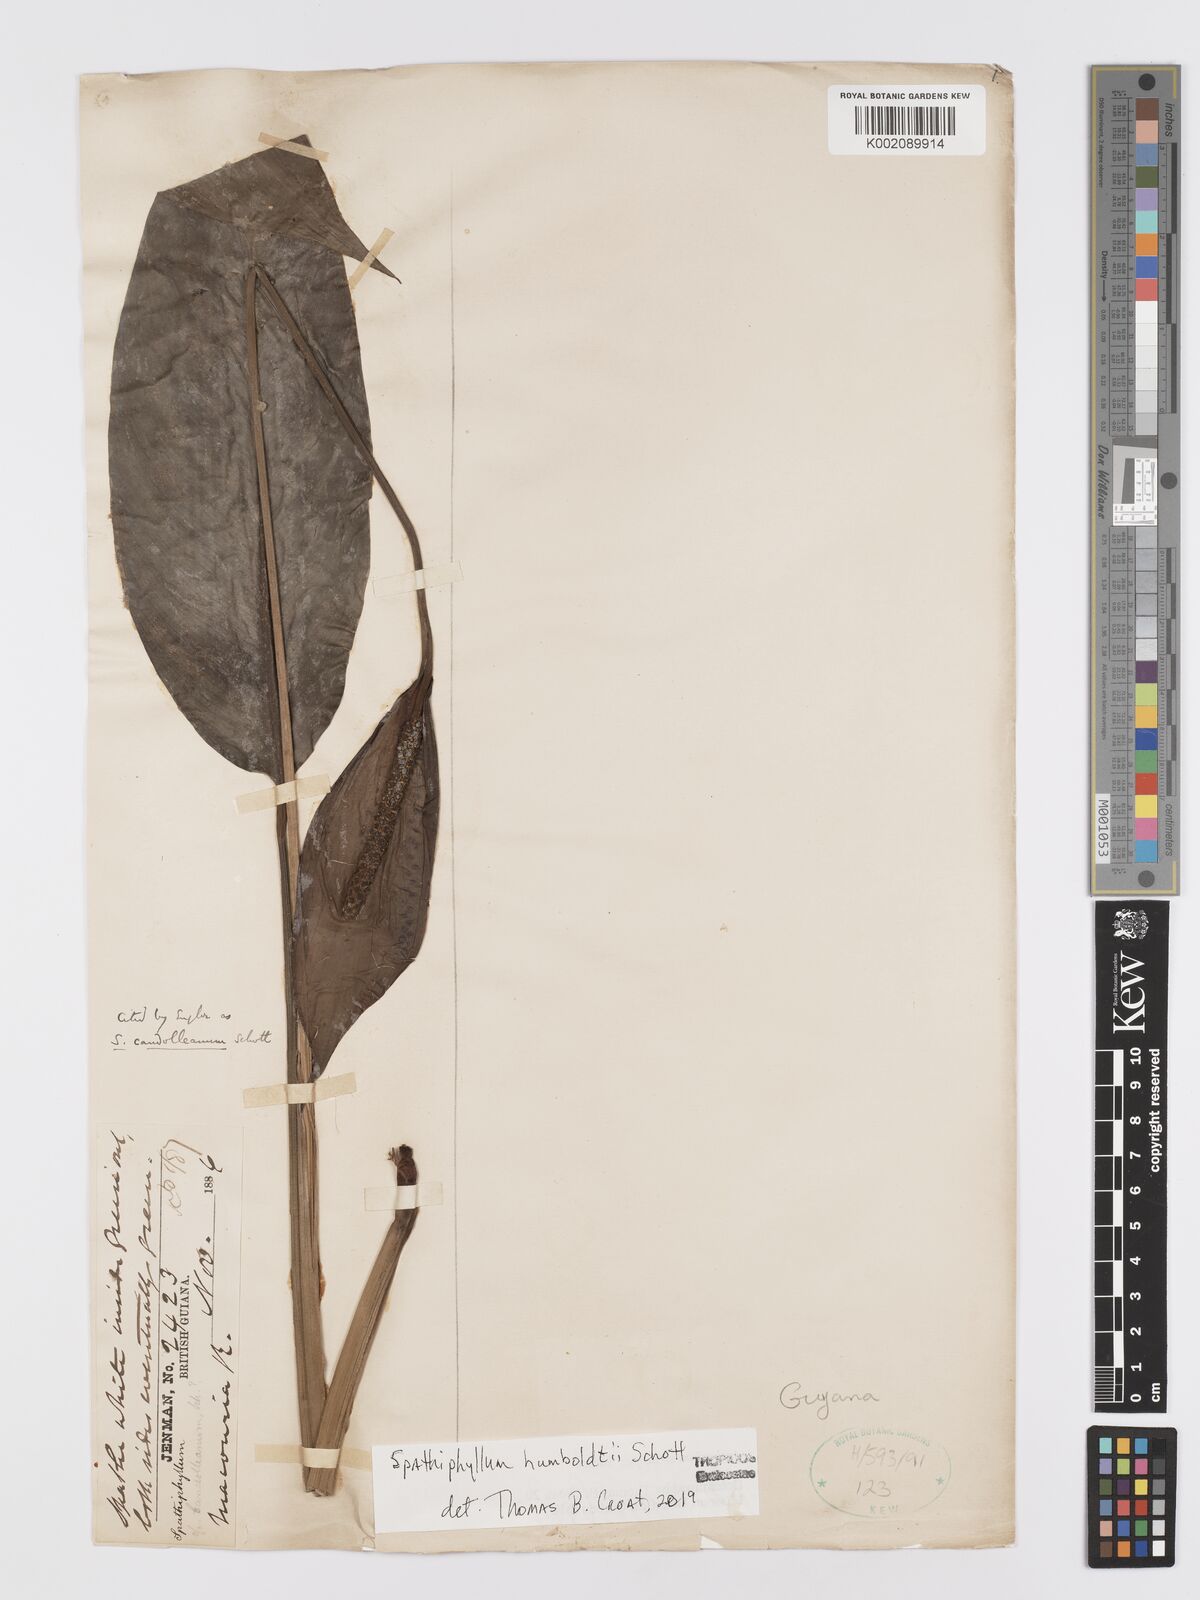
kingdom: Plantae
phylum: Tracheophyta
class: Liliopsida
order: Alismatales
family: Araceae
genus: Spathiphyllum
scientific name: Spathiphyllum humboldtii
